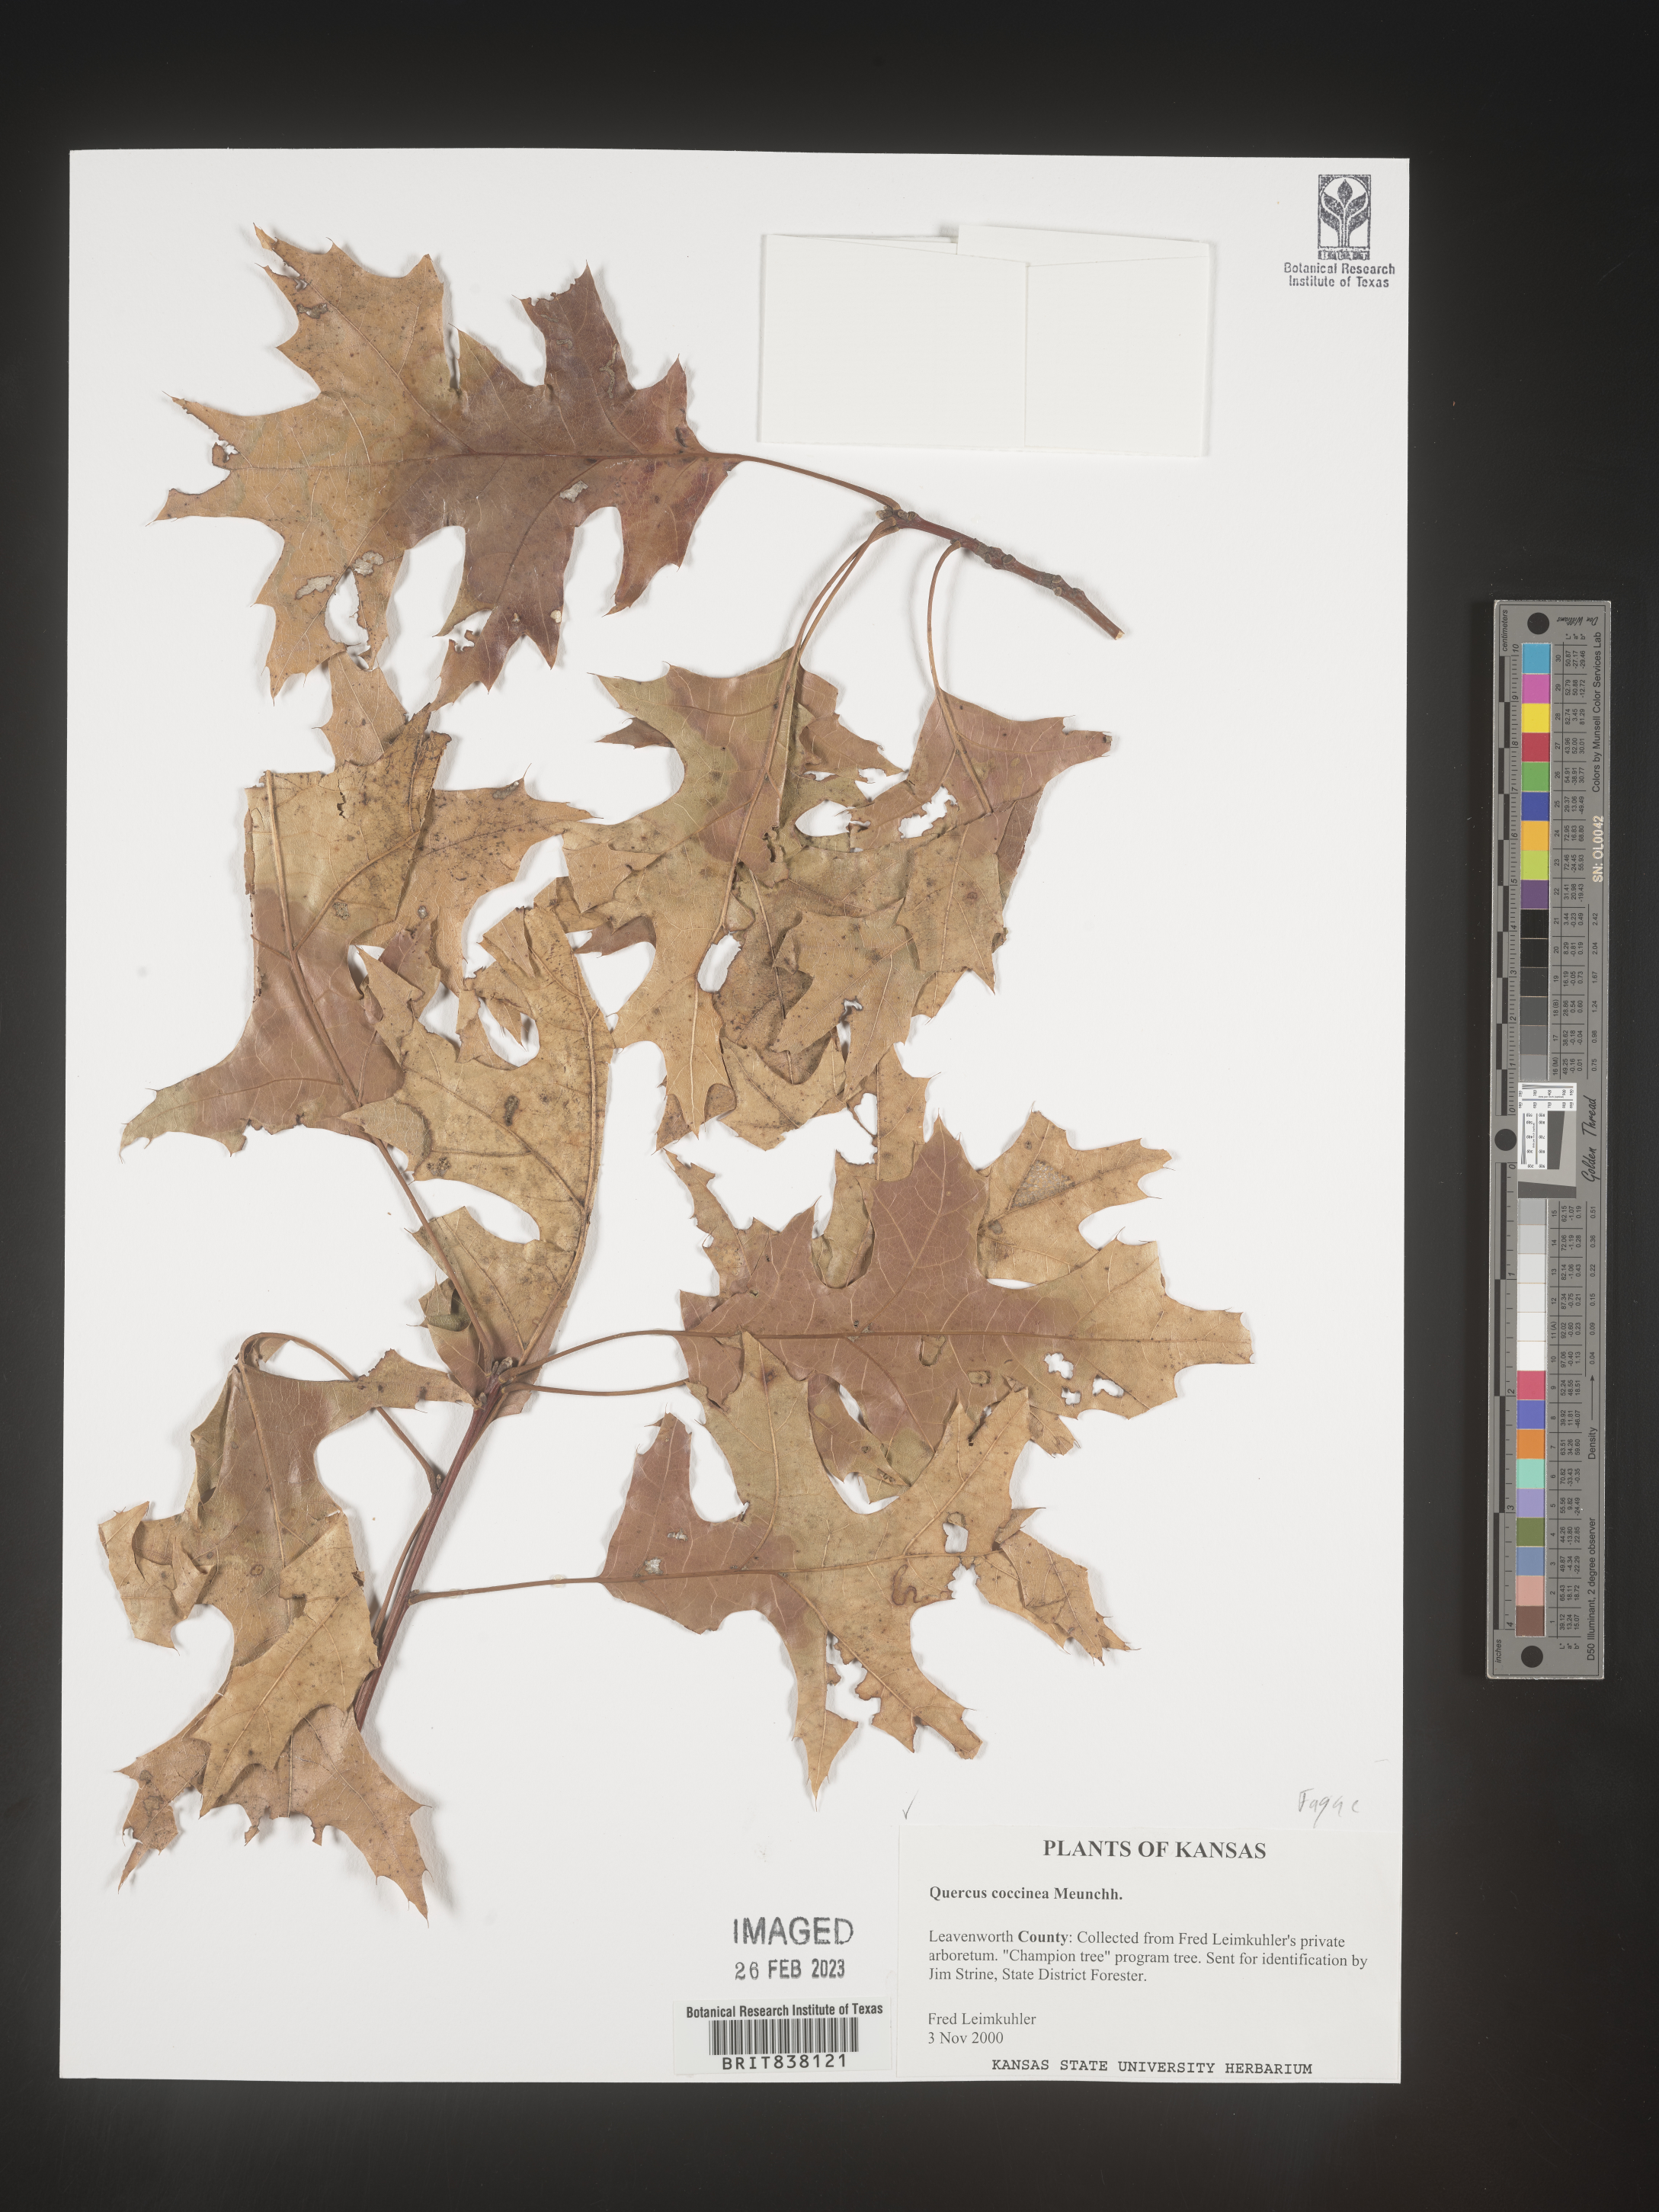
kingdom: Plantae
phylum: Tracheophyta
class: Magnoliopsida
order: Fagales
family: Fagaceae
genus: Quercus
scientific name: Quercus coccinea
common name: Scarlet oak
